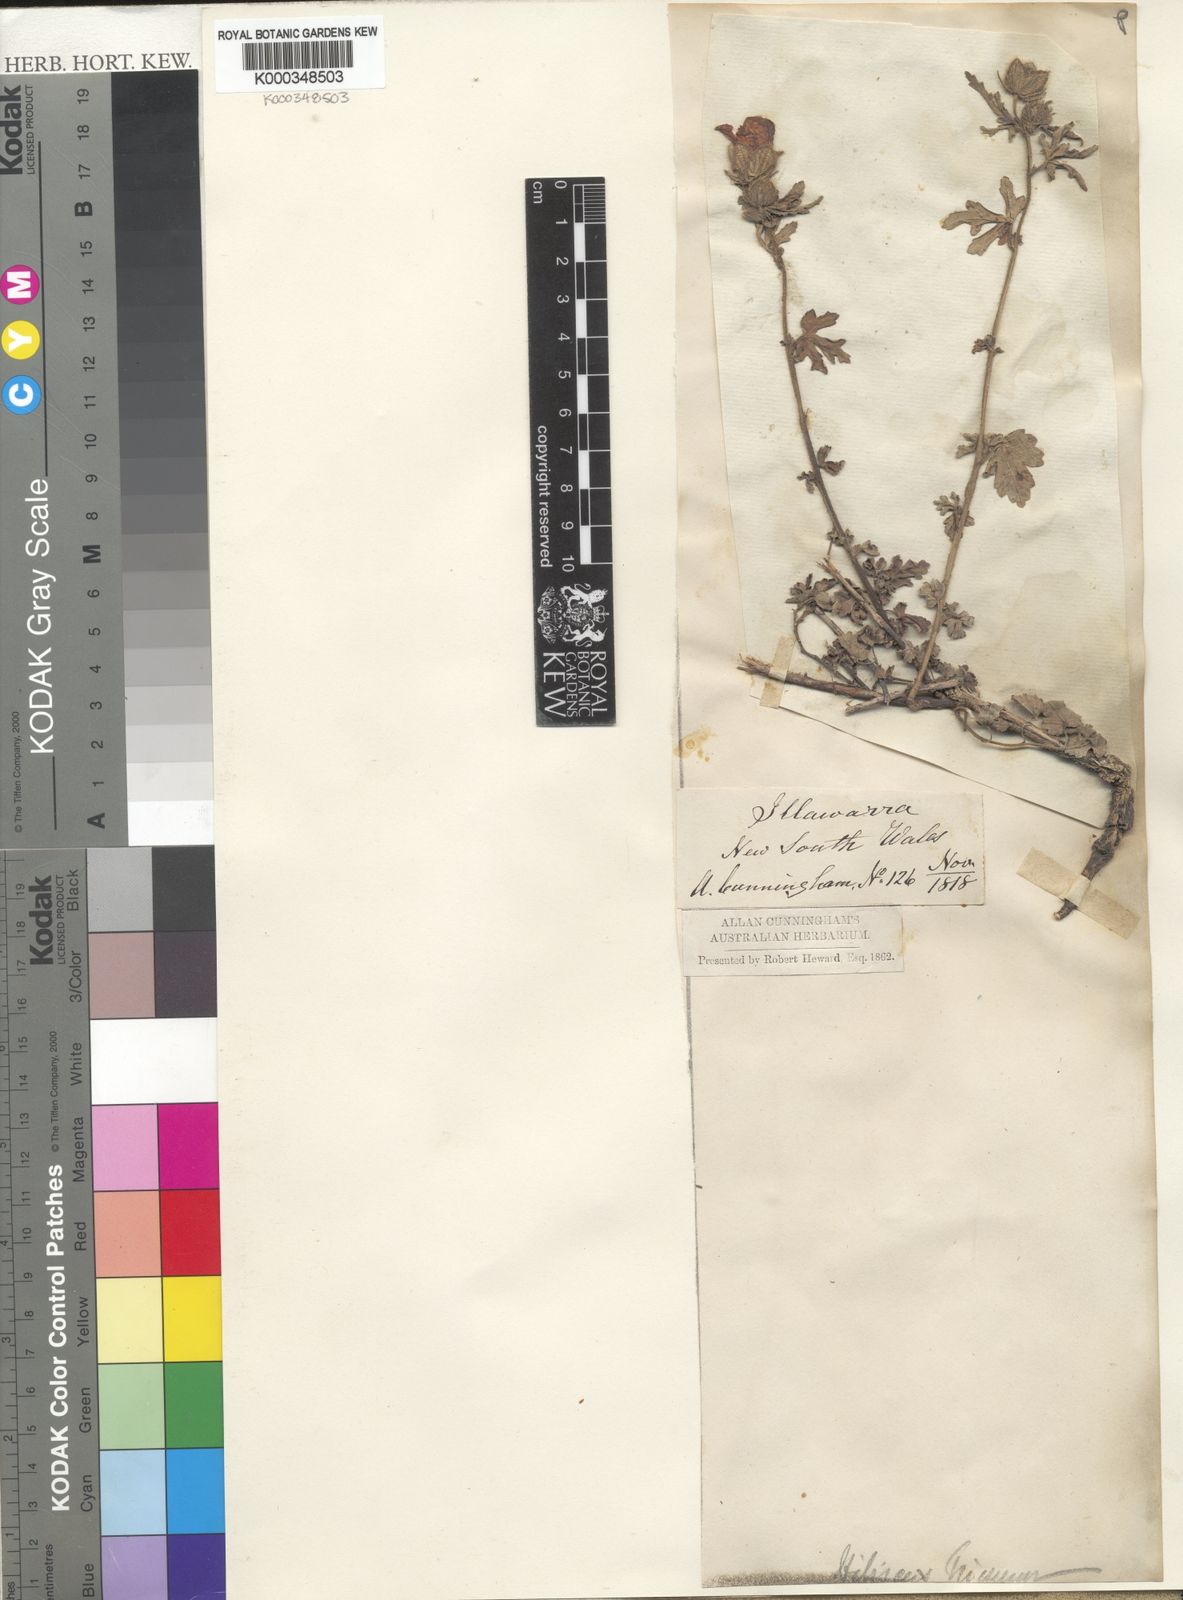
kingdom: Plantae
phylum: Tracheophyta
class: Magnoliopsida
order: Malvales
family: Malvaceae
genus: Hibiscus
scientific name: Hibiscus trionum
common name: Bladder ketmia
